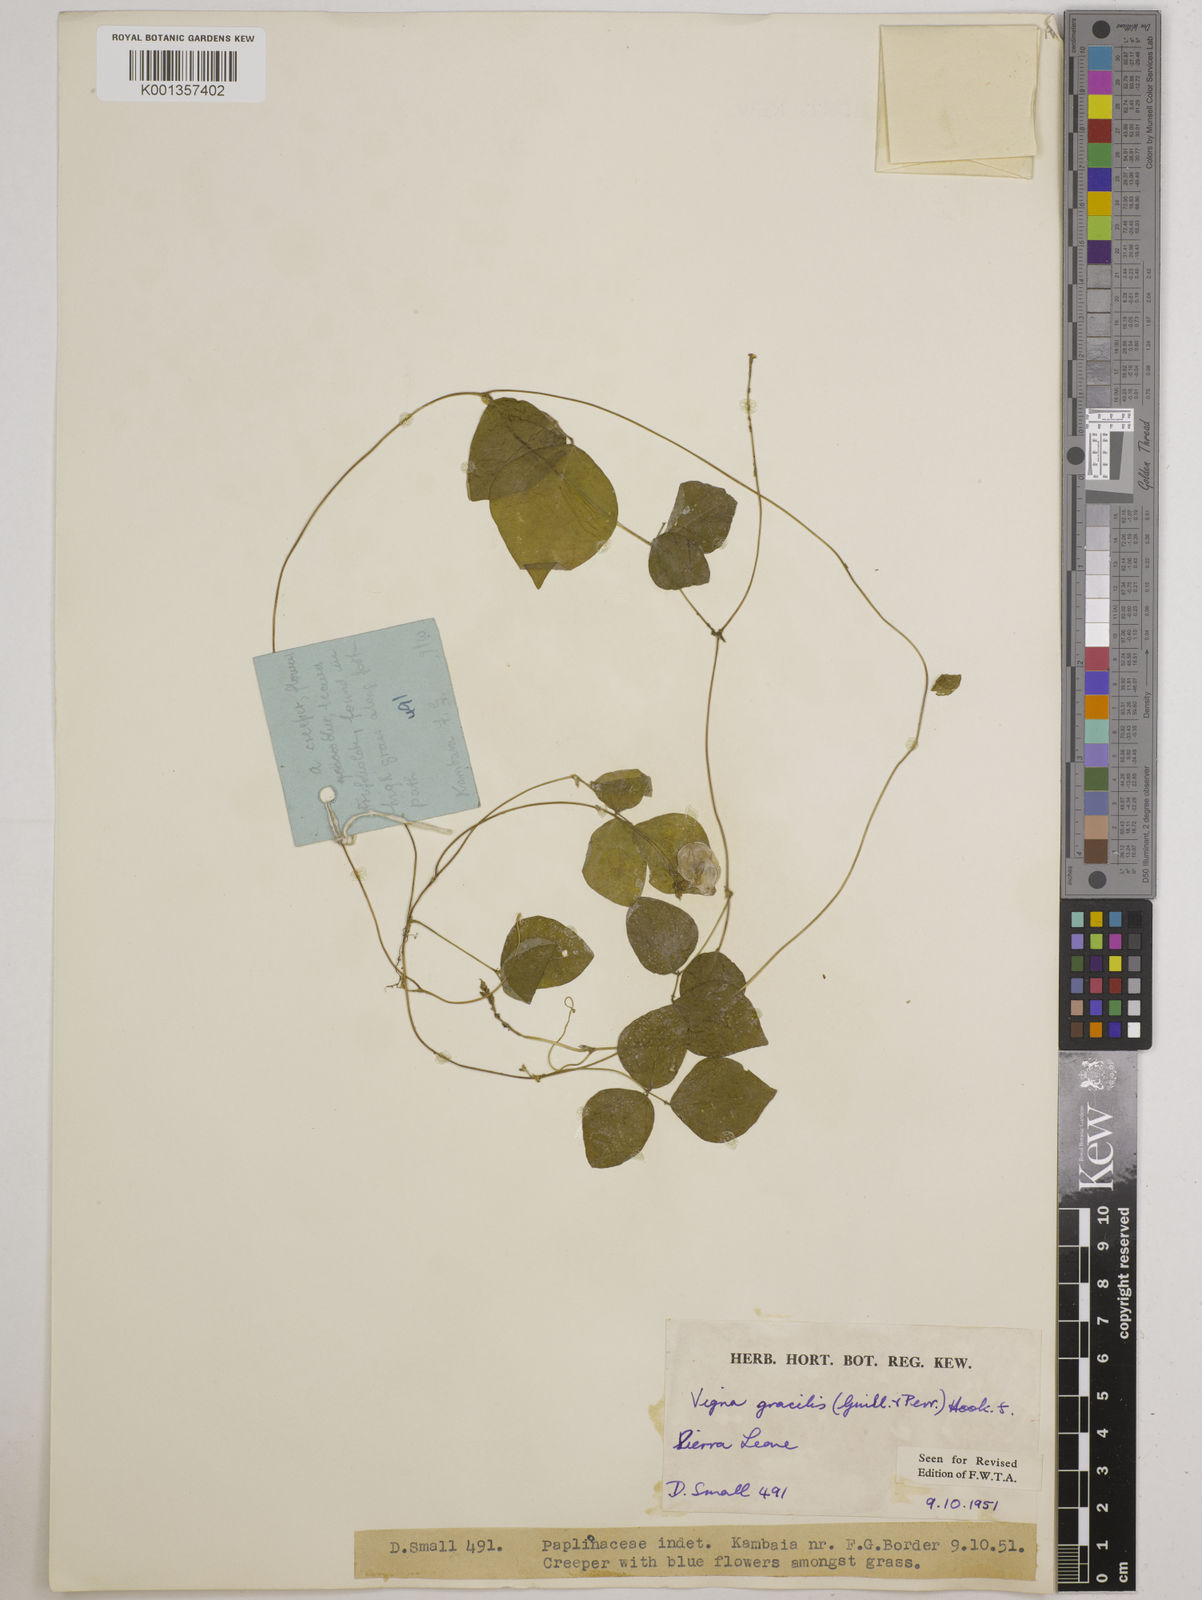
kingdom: Plantae
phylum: Tracheophyta
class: Magnoliopsida
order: Fabales
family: Fabaceae
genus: Vigna
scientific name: Vigna gracilis
